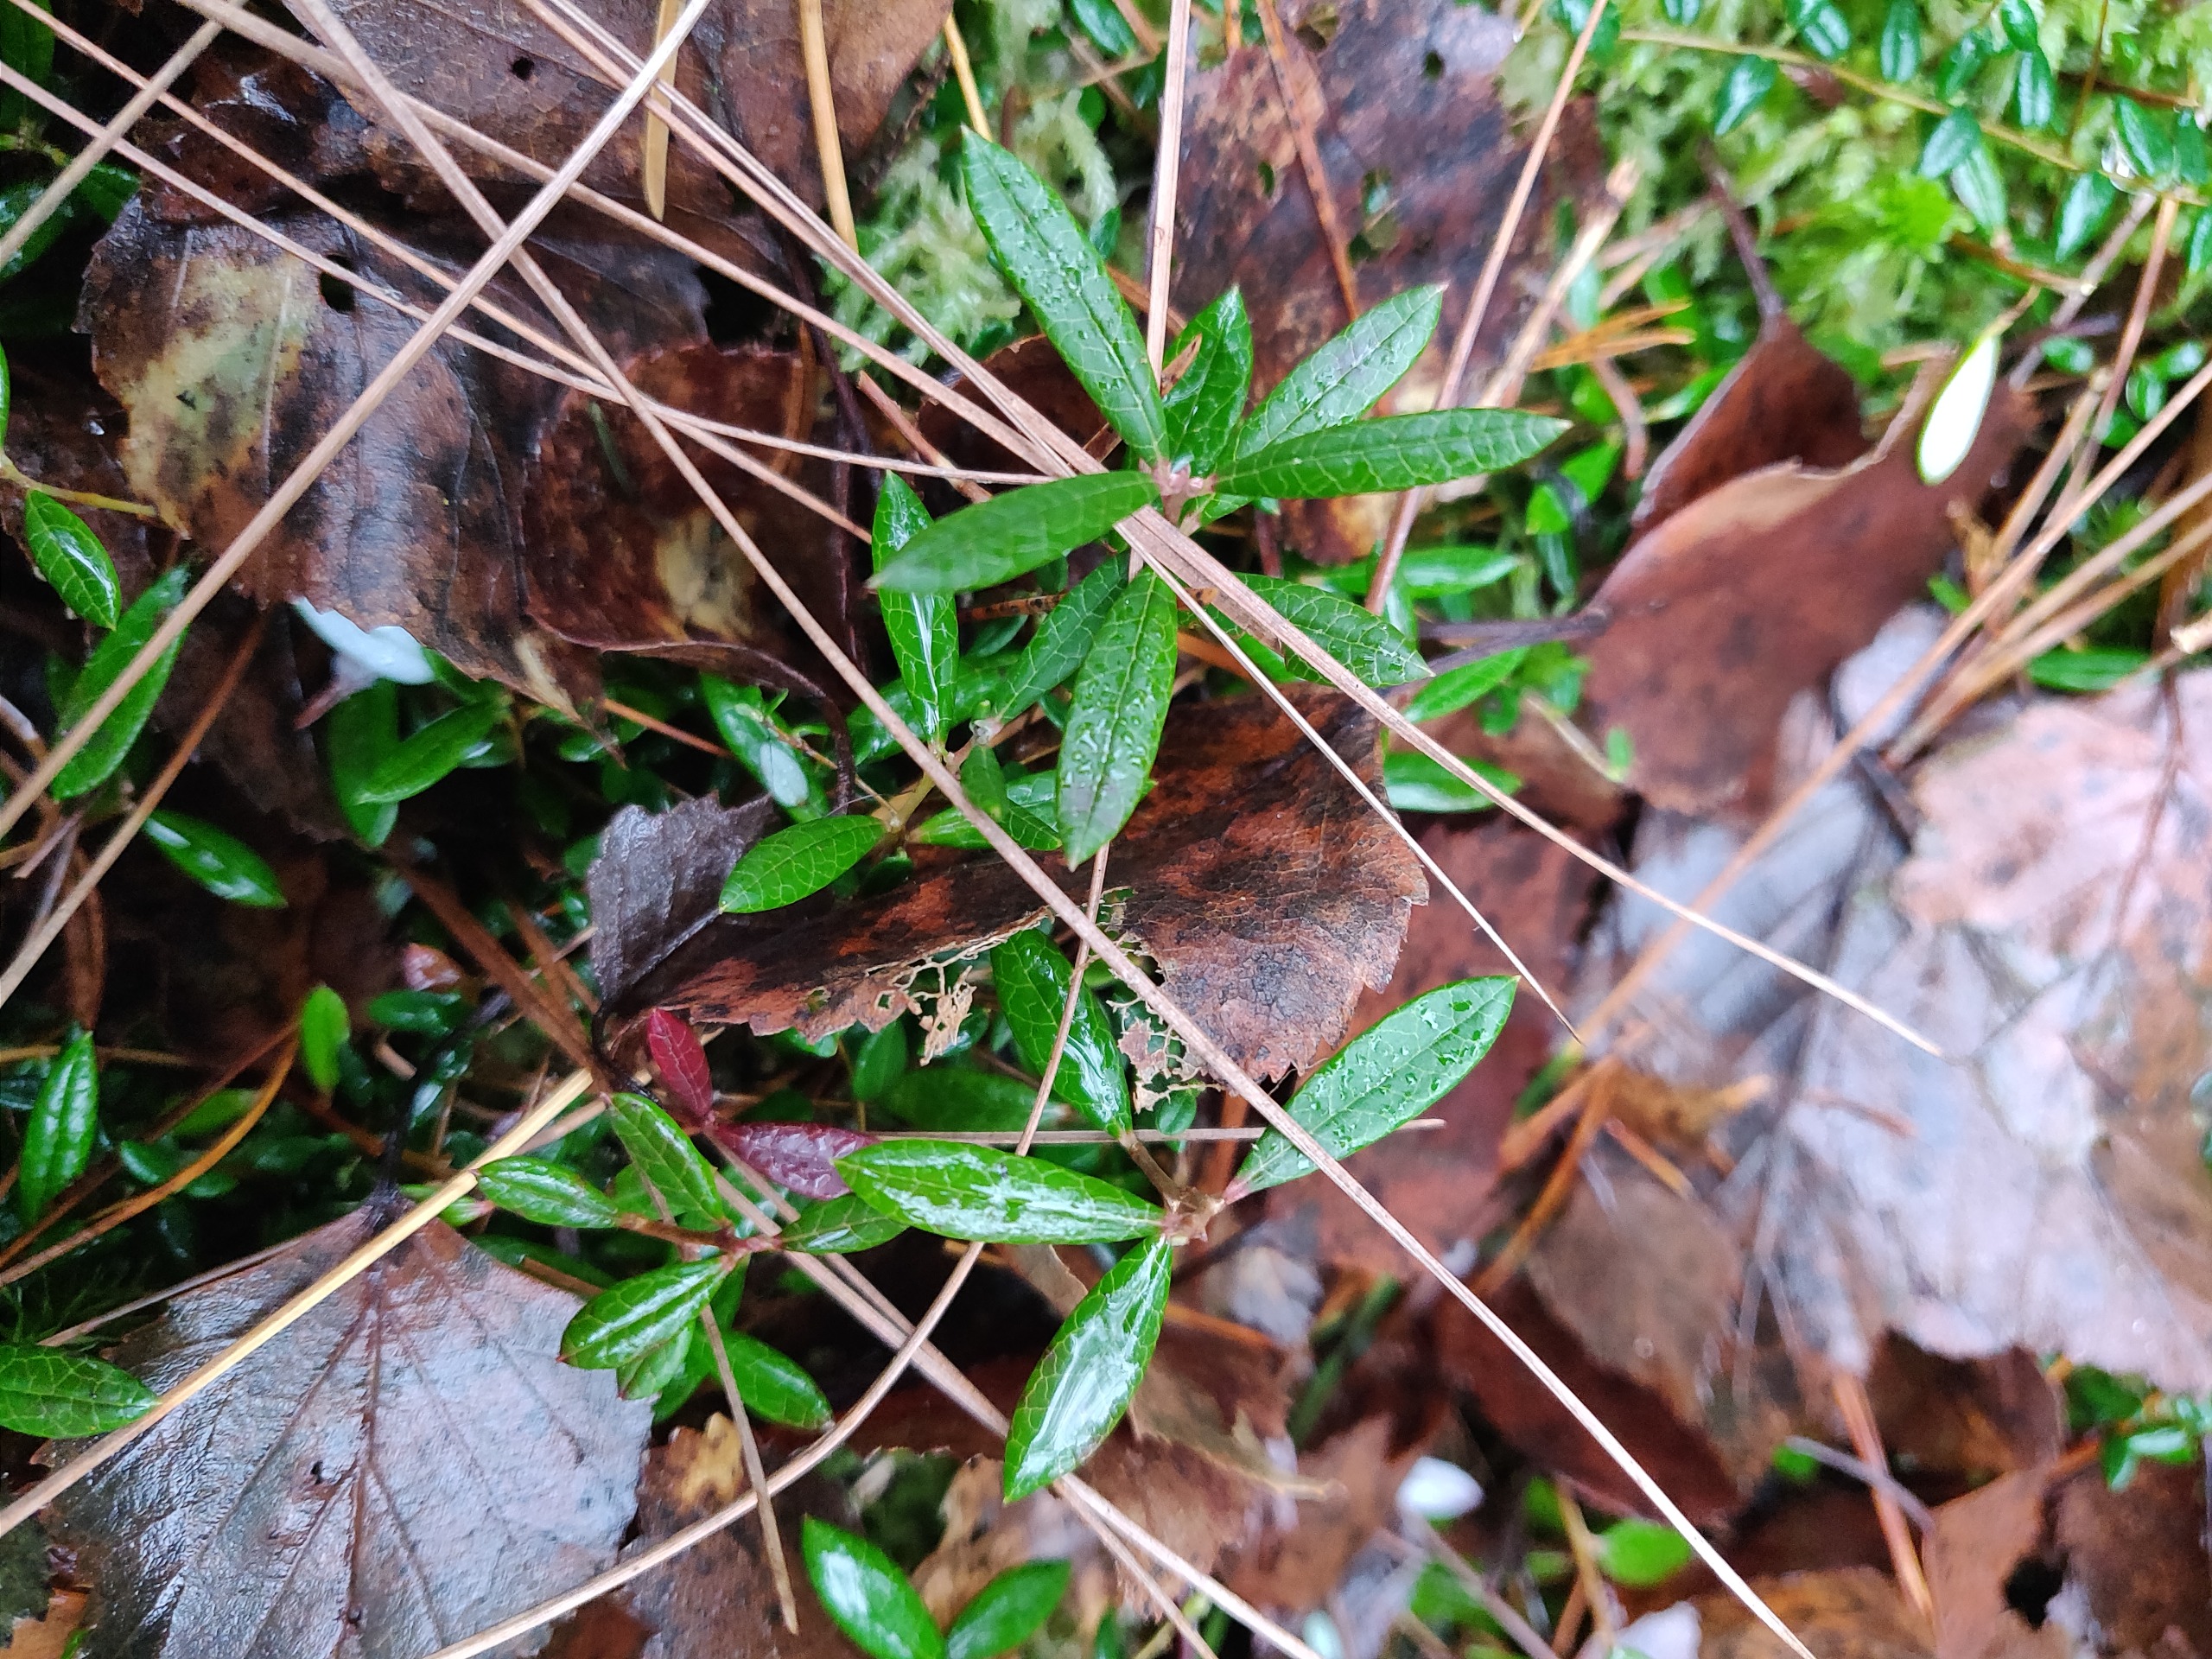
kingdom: Plantae
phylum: Tracheophyta
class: Magnoliopsida
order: Ericales
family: Ericaceae
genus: Andromeda
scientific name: Andromeda polifolia
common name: Rosmarinlyng
